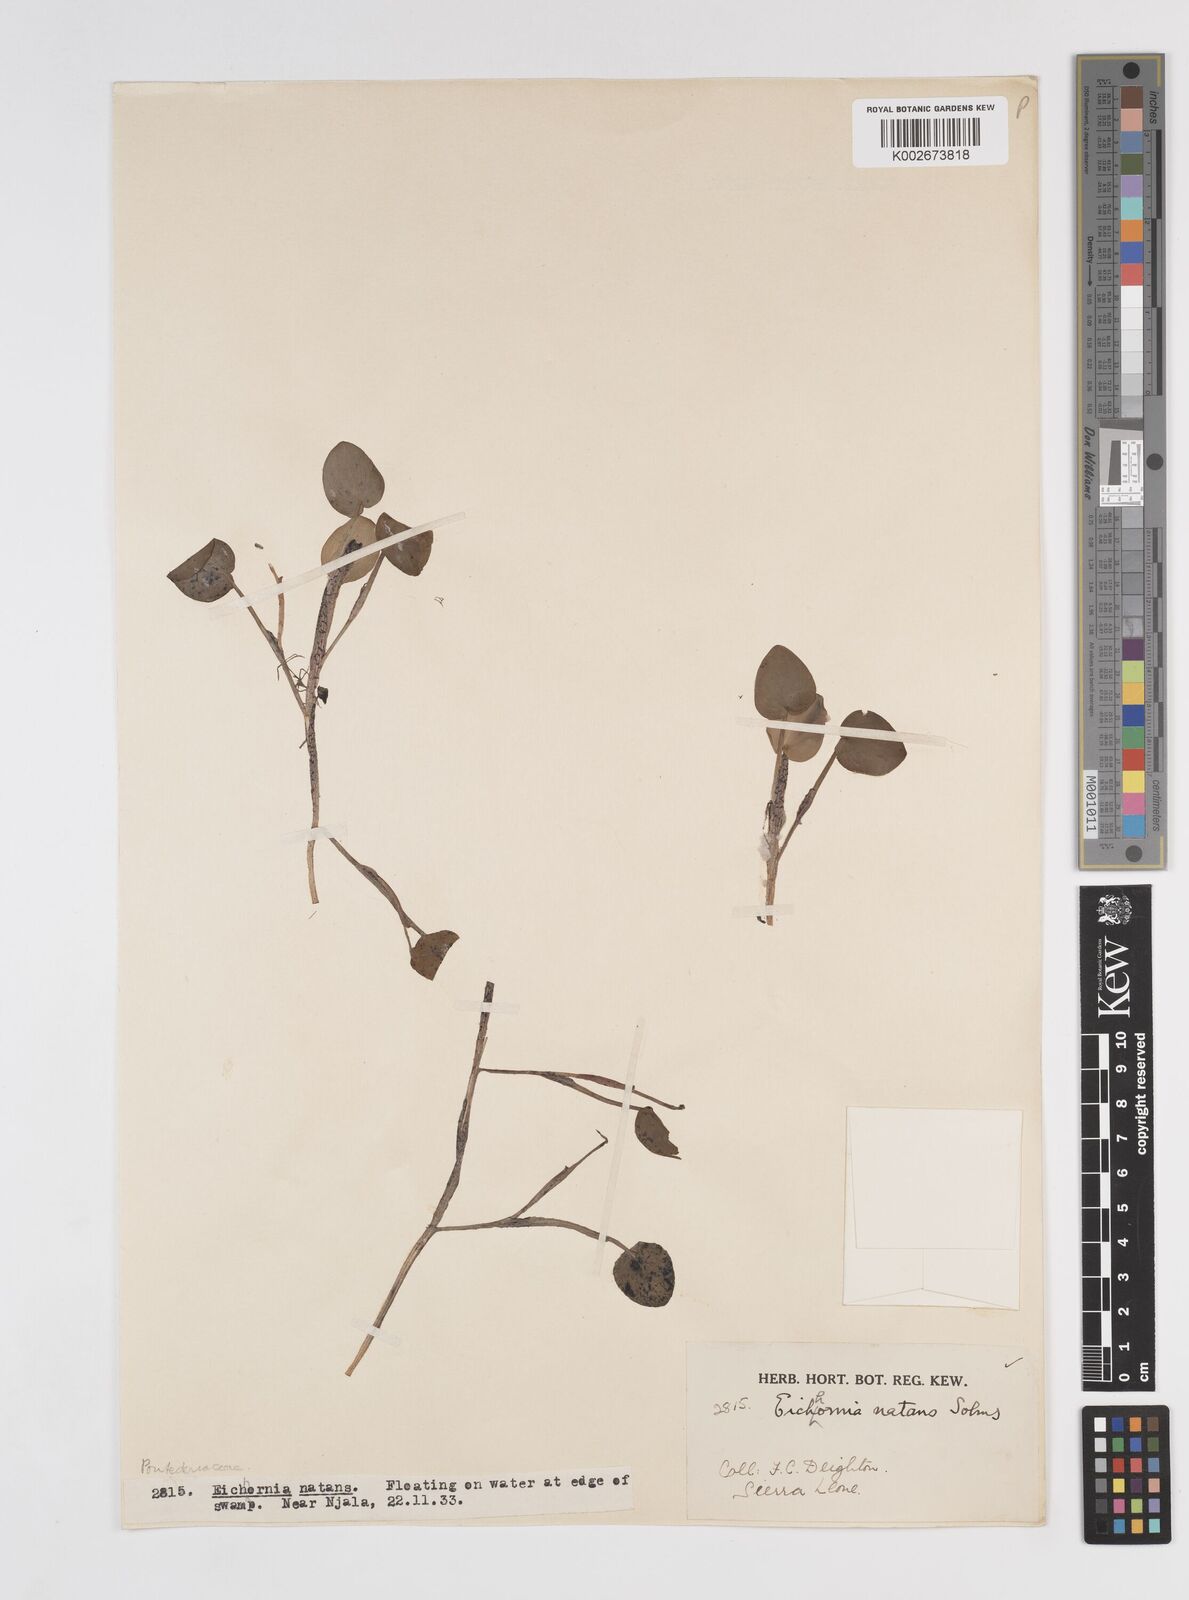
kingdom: Plantae
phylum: Tracheophyta
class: Liliopsida
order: Commelinales
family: Pontederiaceae
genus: Pontederia
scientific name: Pontederia diversifolia
